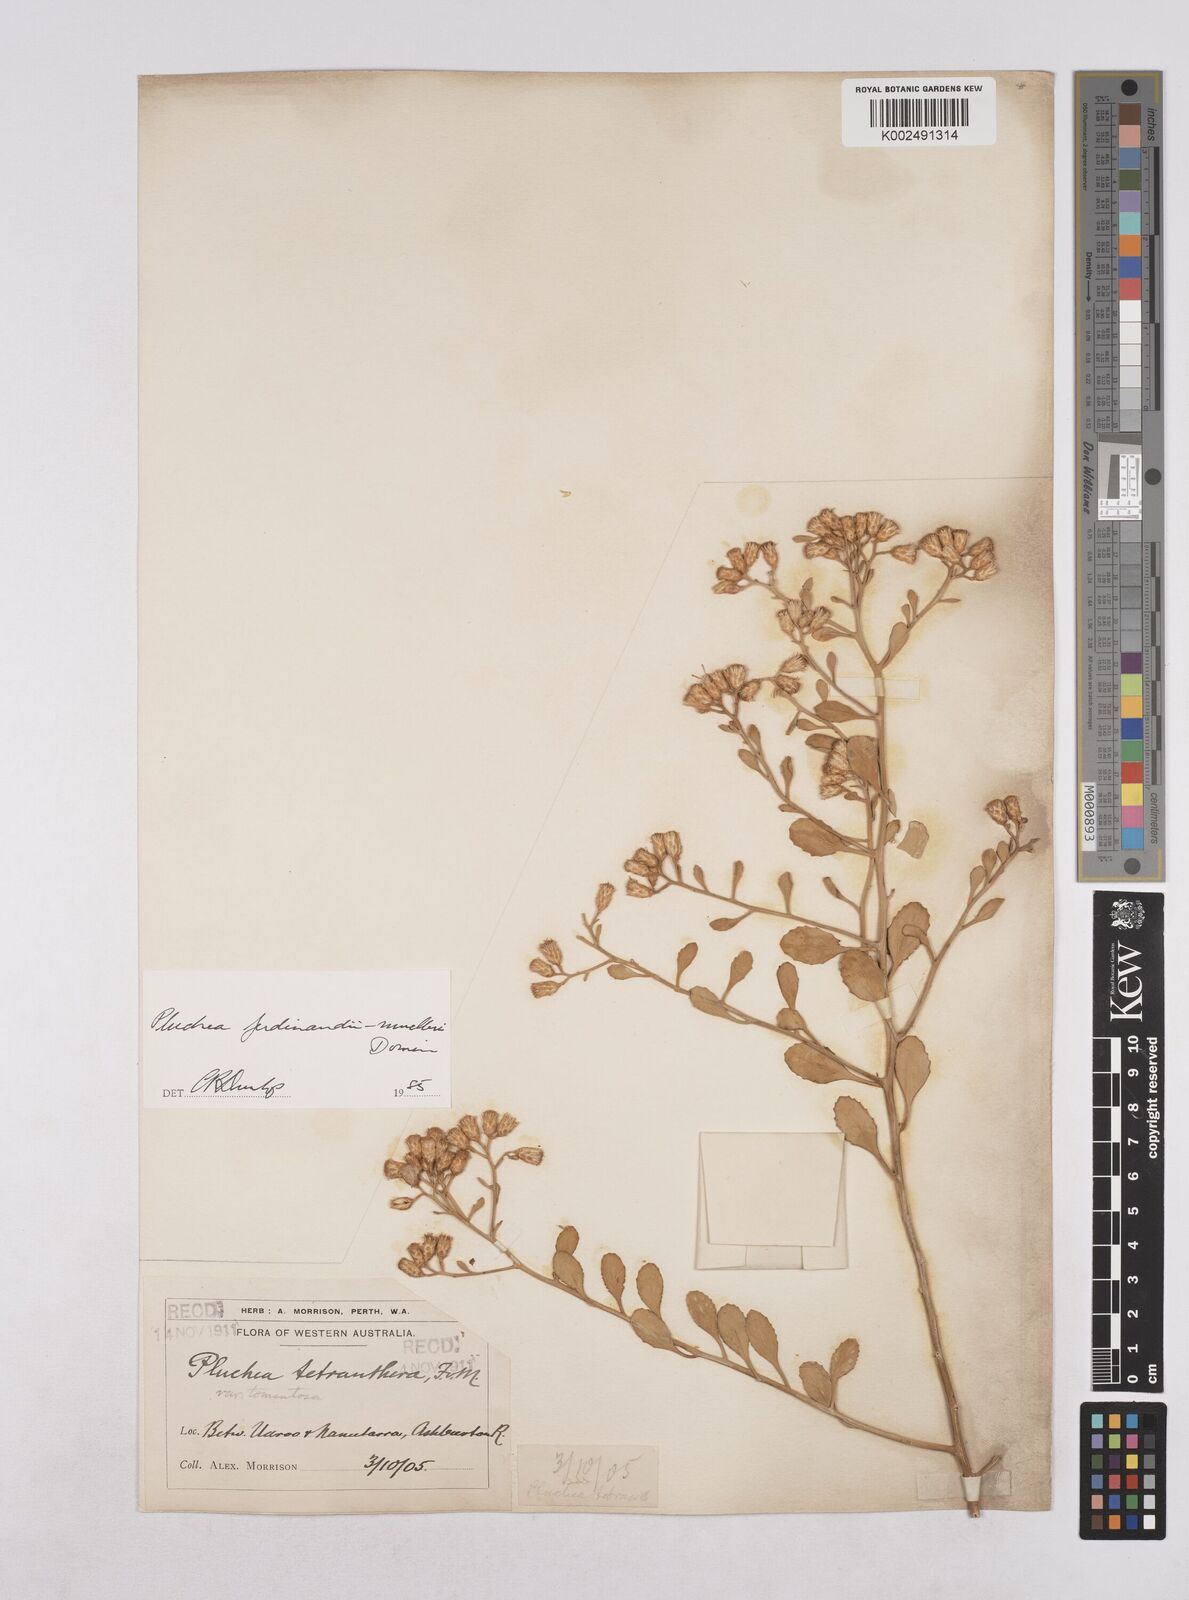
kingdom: Plantae
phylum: Tracheophyta
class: Magnoliopsida
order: Asterales
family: Asteraceae
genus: Pluchea
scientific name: Pluchea ferdinandi-muelleri
